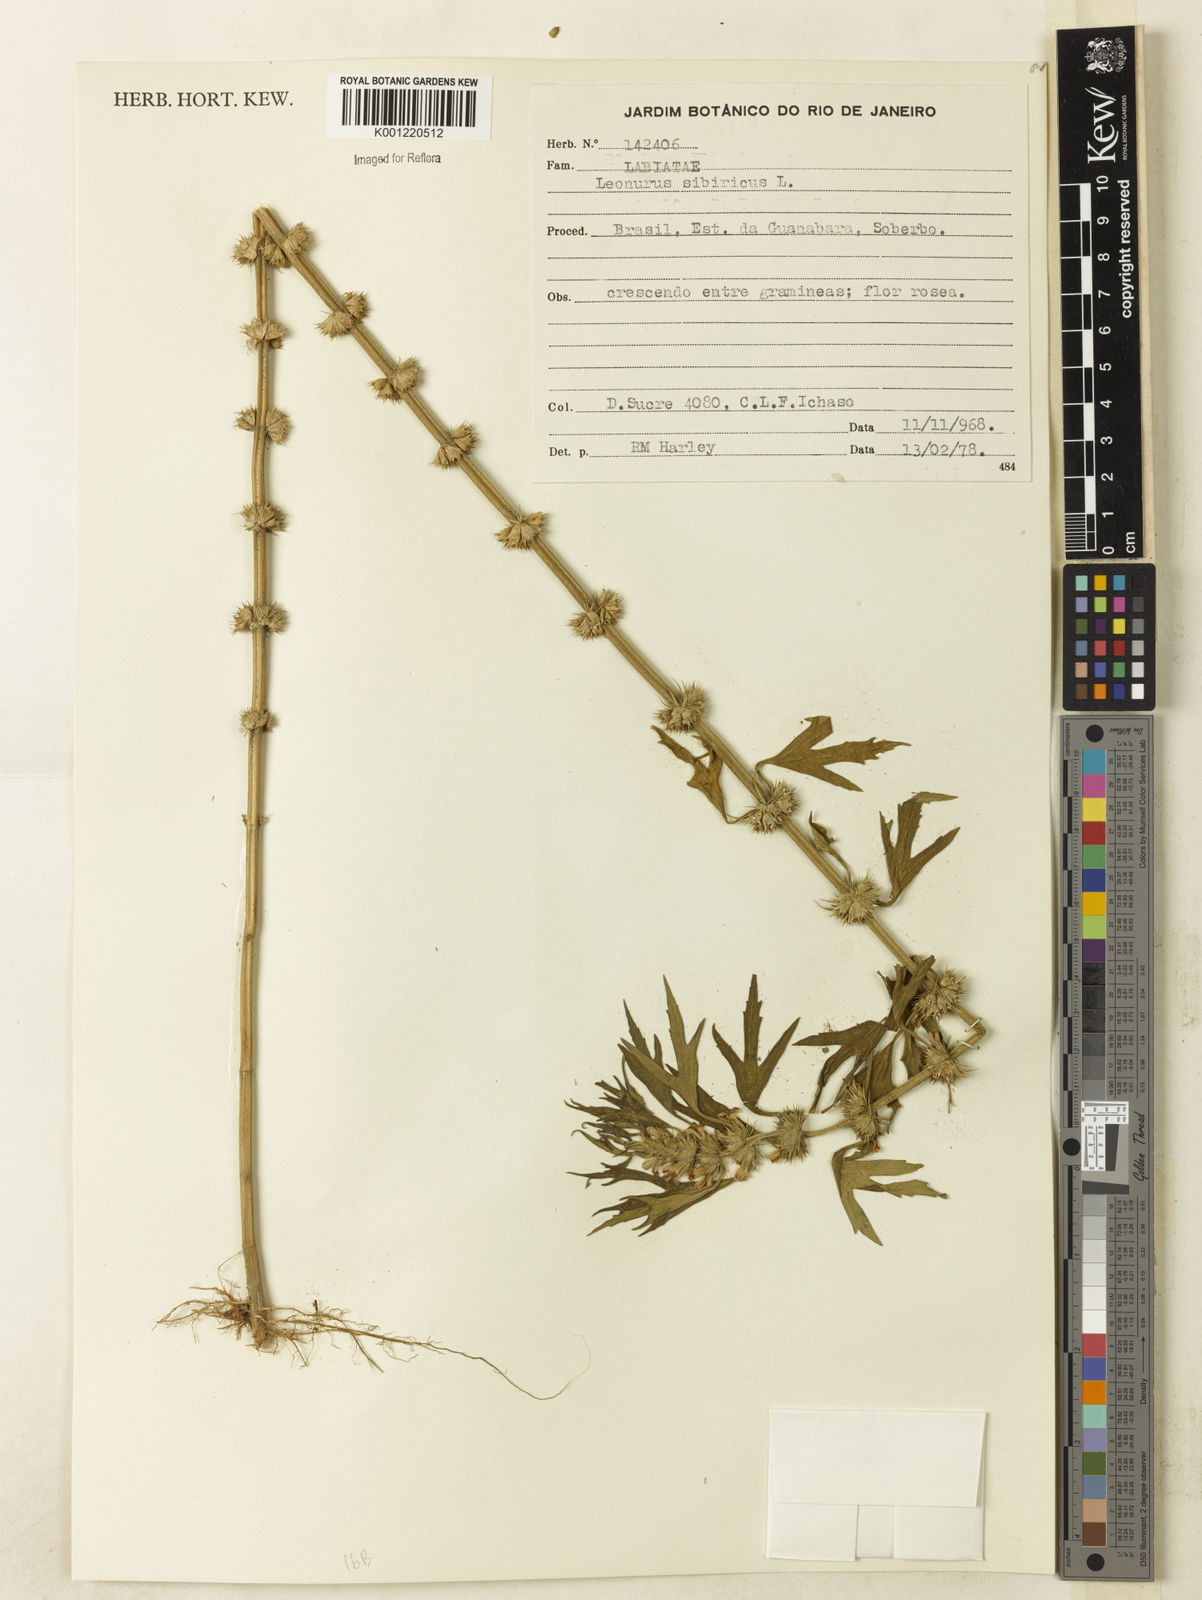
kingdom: Plantae
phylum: Tracheophyta
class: Magnoliopsida
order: Lamiales
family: Lamiaceae
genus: Leonurus
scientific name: Leonurus japonicus
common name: Honeyweed
